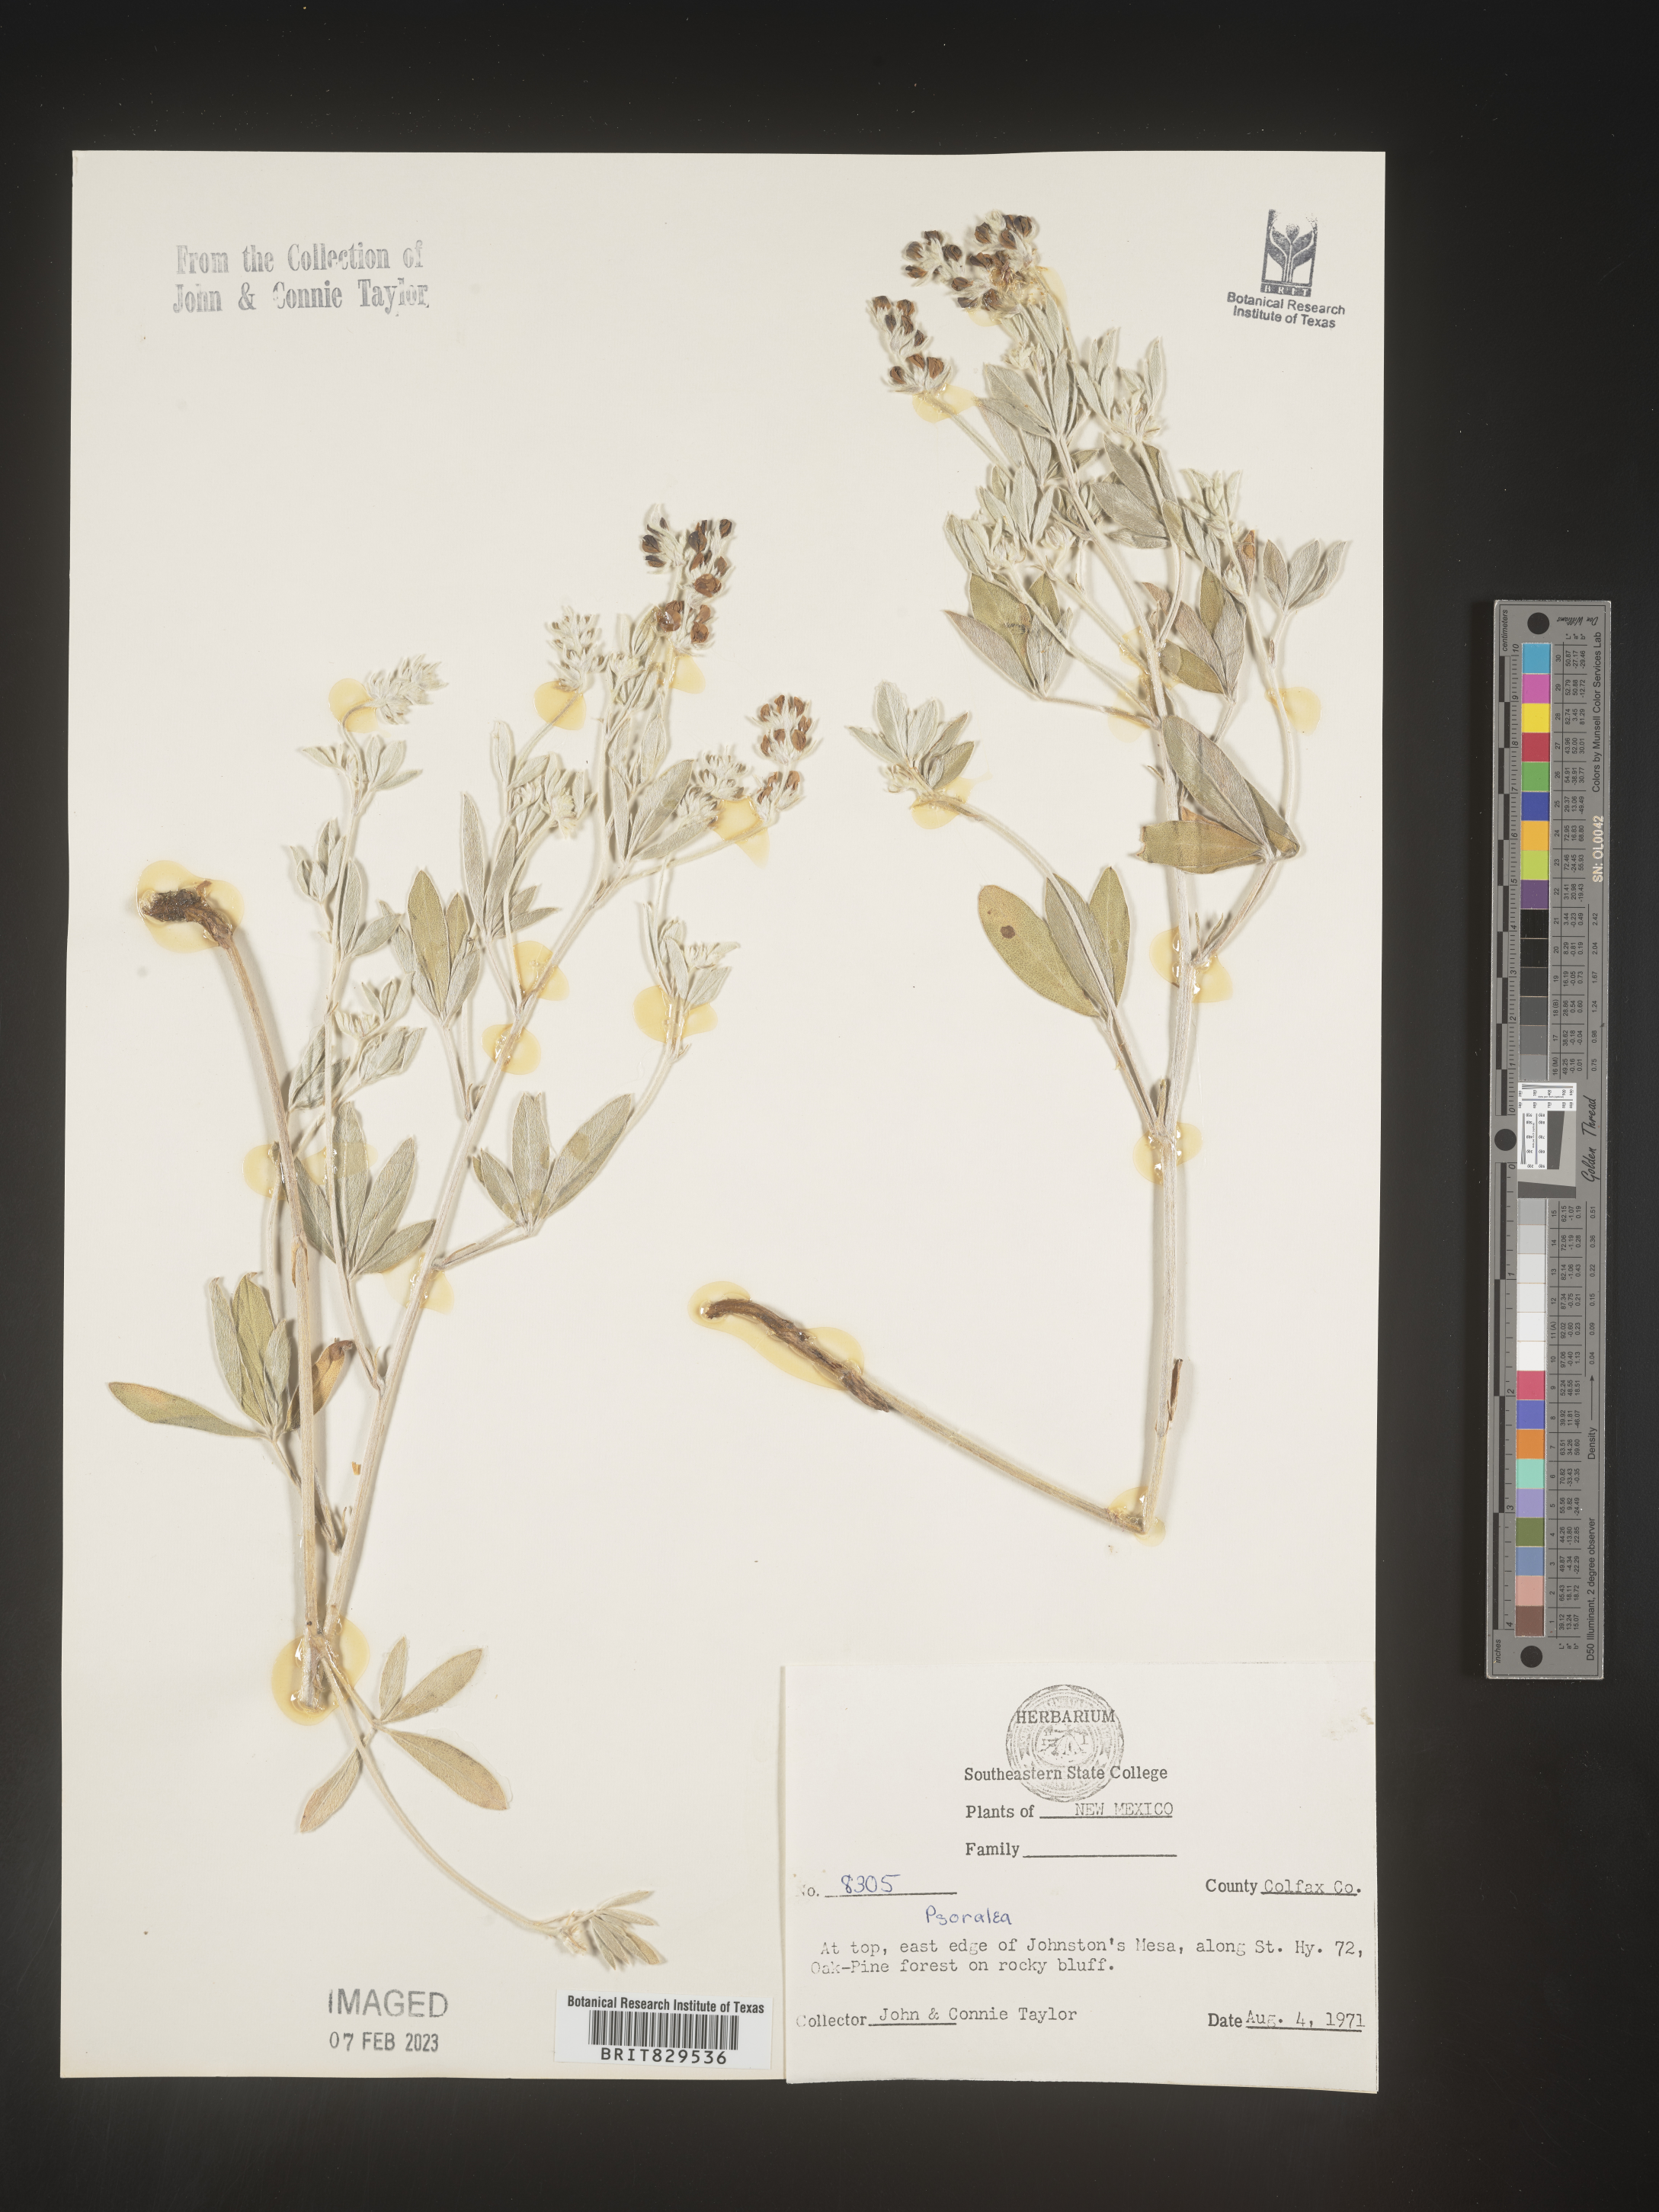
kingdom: Plantae
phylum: Tracheophyta
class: Magnoliopsida
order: Fabales
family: Fabaceae
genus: Psoralea
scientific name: Psoralea
